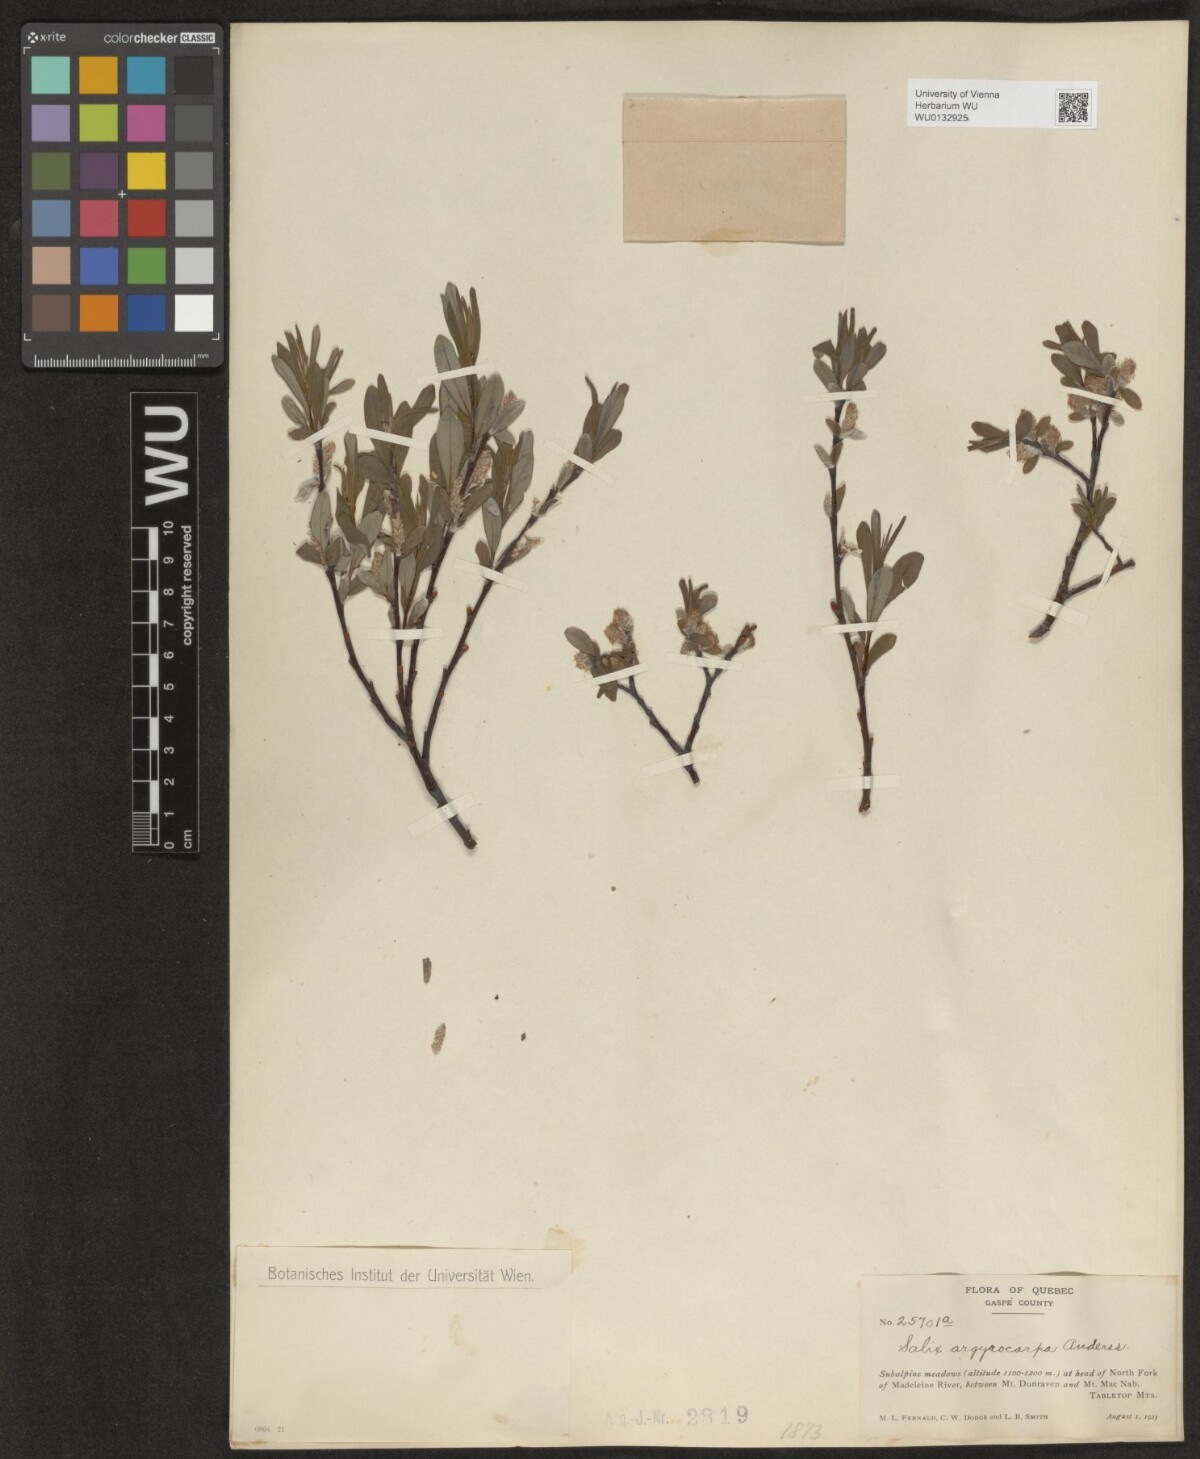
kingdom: Plantae
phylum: Tracheophyta
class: Magnoliopsida
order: Malpighiales
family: Salicaceae
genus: Salix
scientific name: Salix argyrocarpa
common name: Labrador willow
